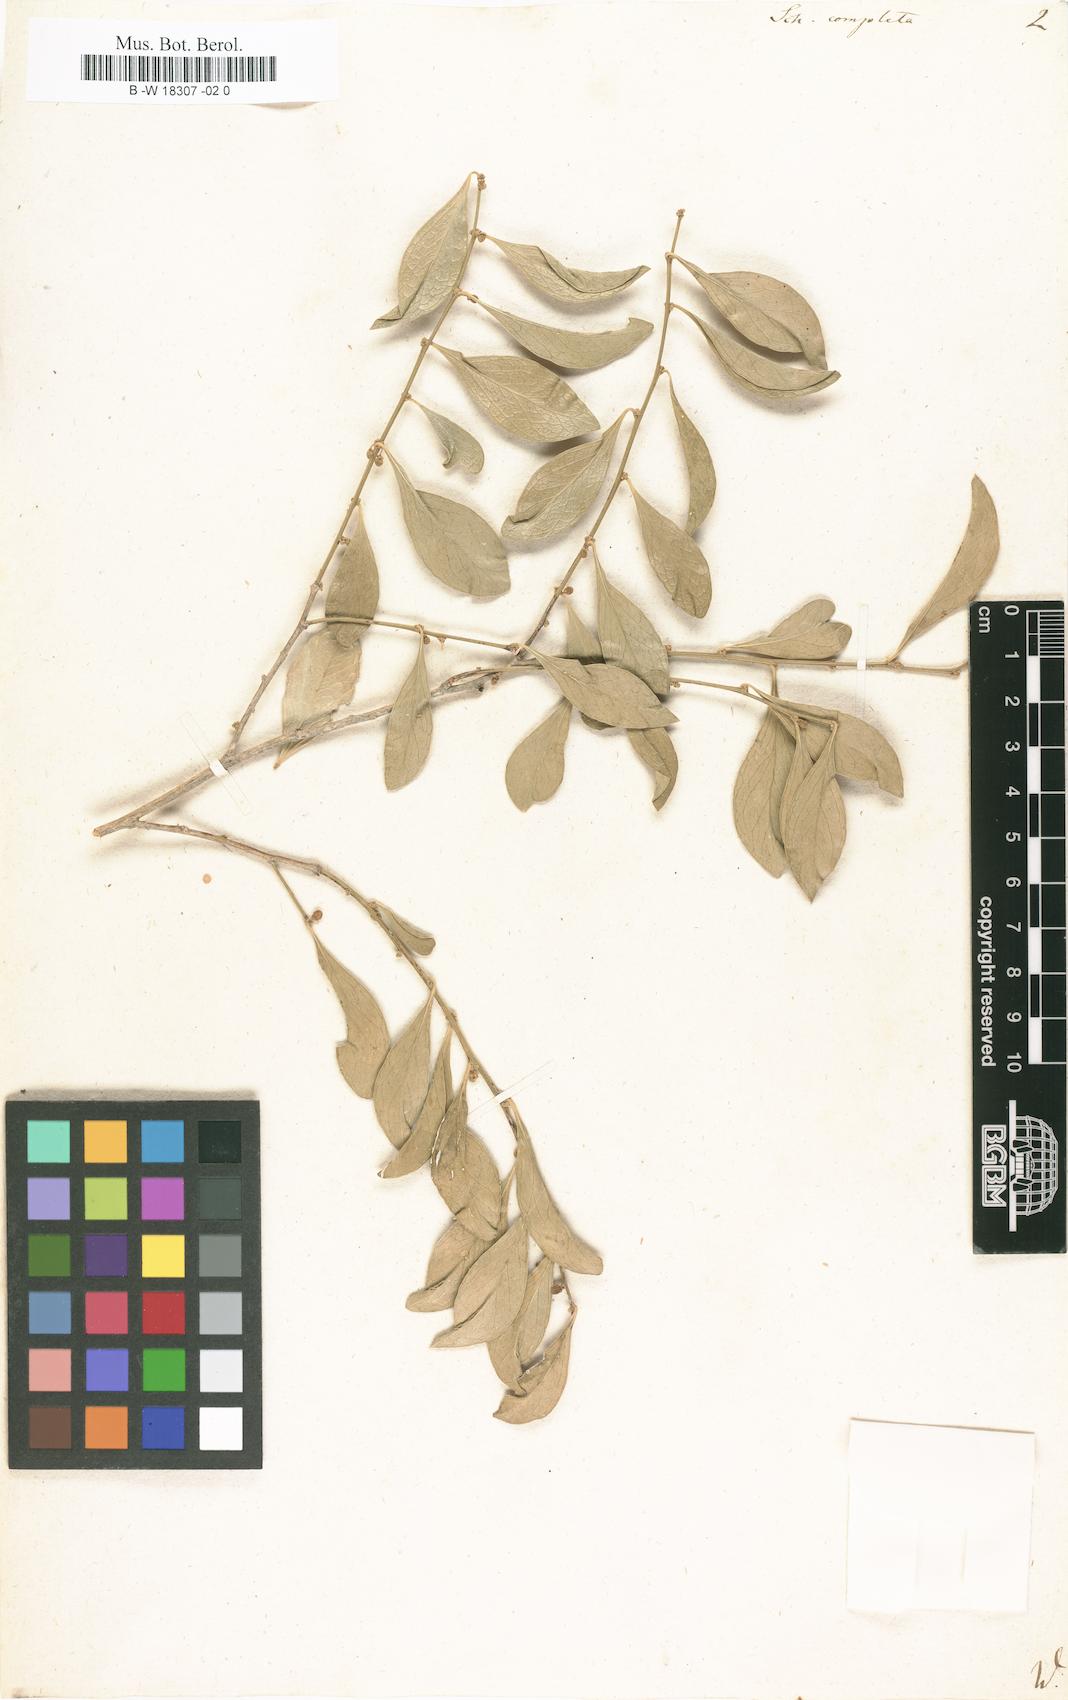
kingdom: Plantae
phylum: Tracheophyta
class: Magnoliopsida
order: Celastrales
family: Celastraceae
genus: Schaefferia
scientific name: Schaefferia frutescens
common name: Boxwood
